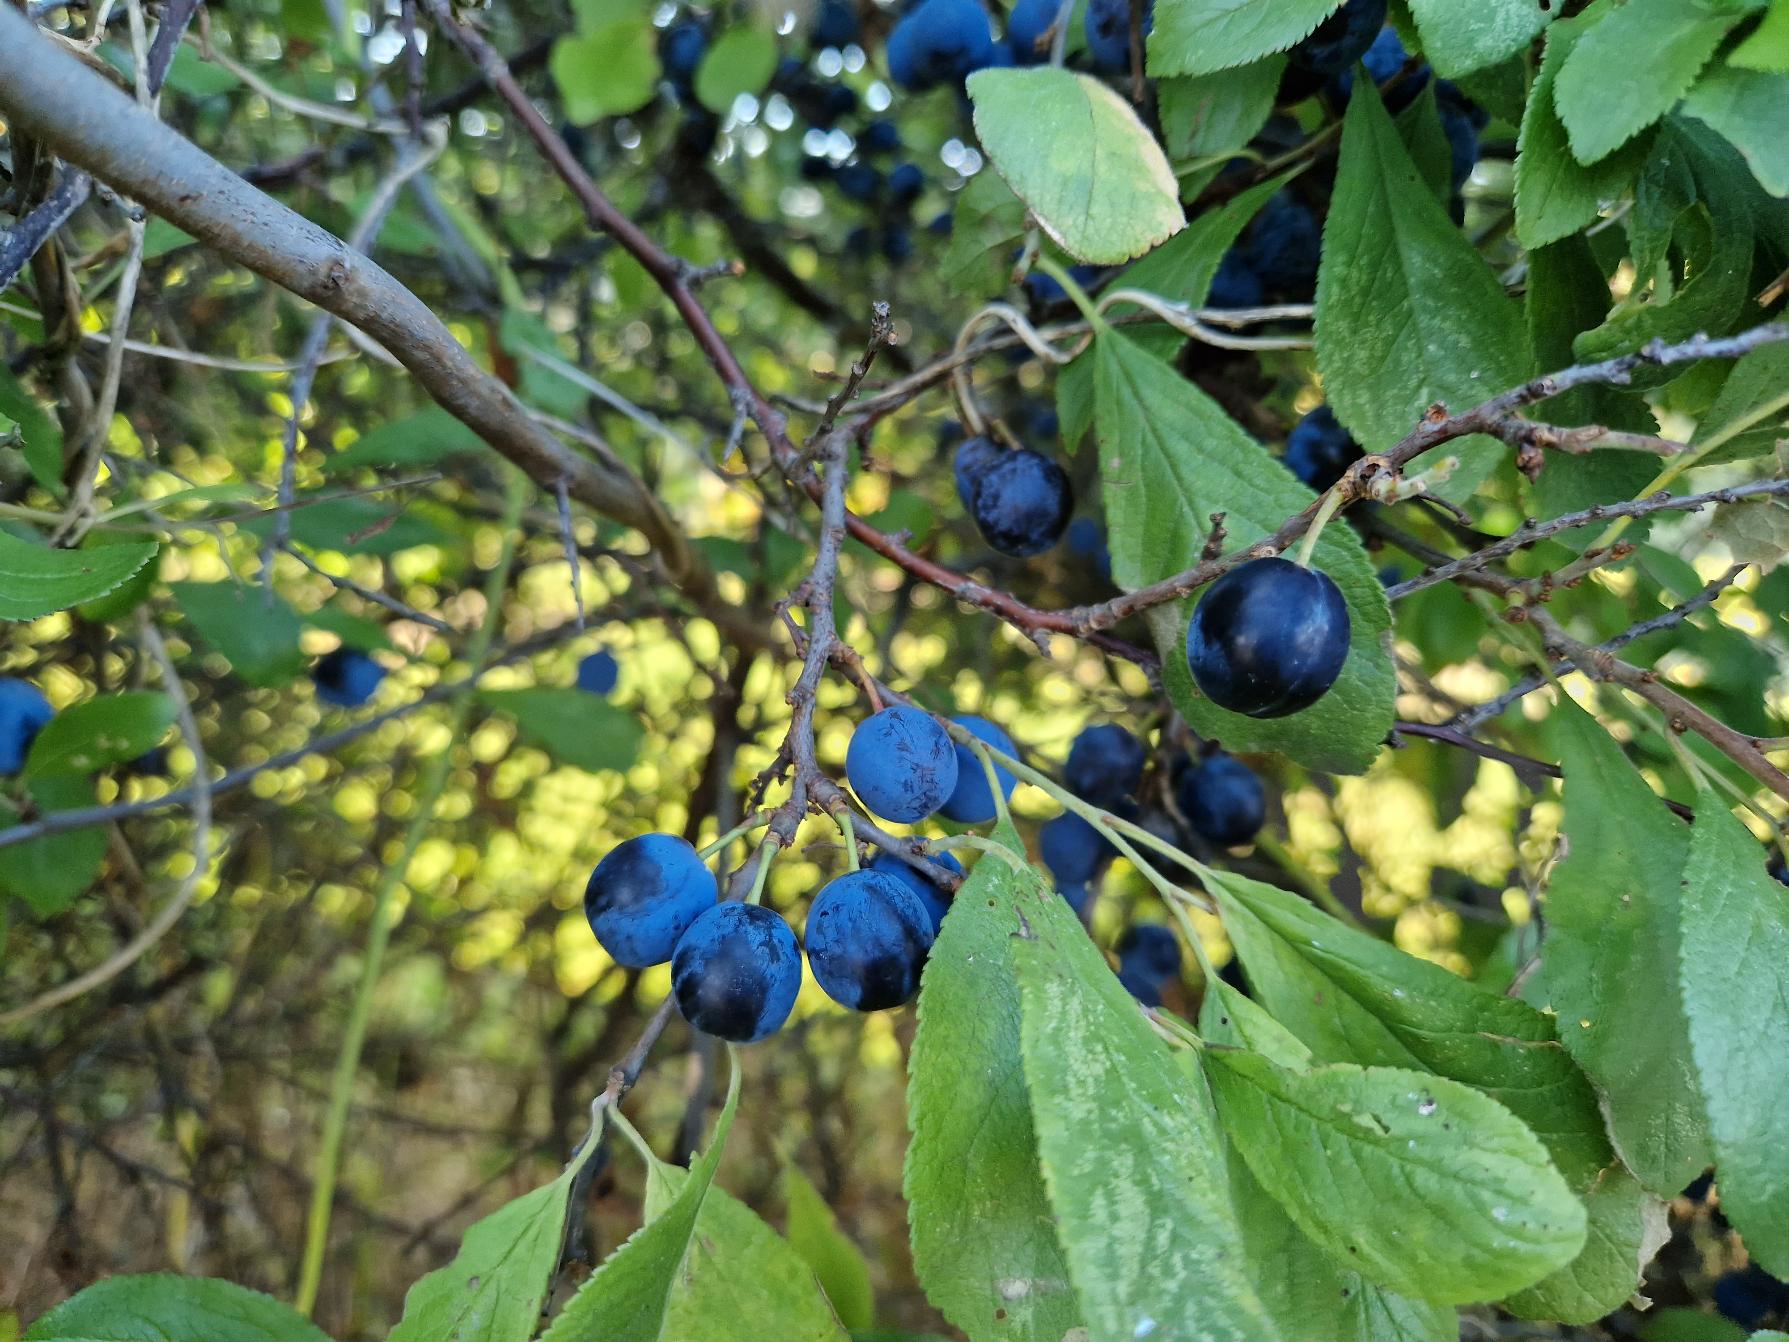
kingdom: Plantae
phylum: Tracheophyta
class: Magnoliopsida
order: Rosales
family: Rosaceae
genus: Prunus
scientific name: Prunus spinosa
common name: Slåen
